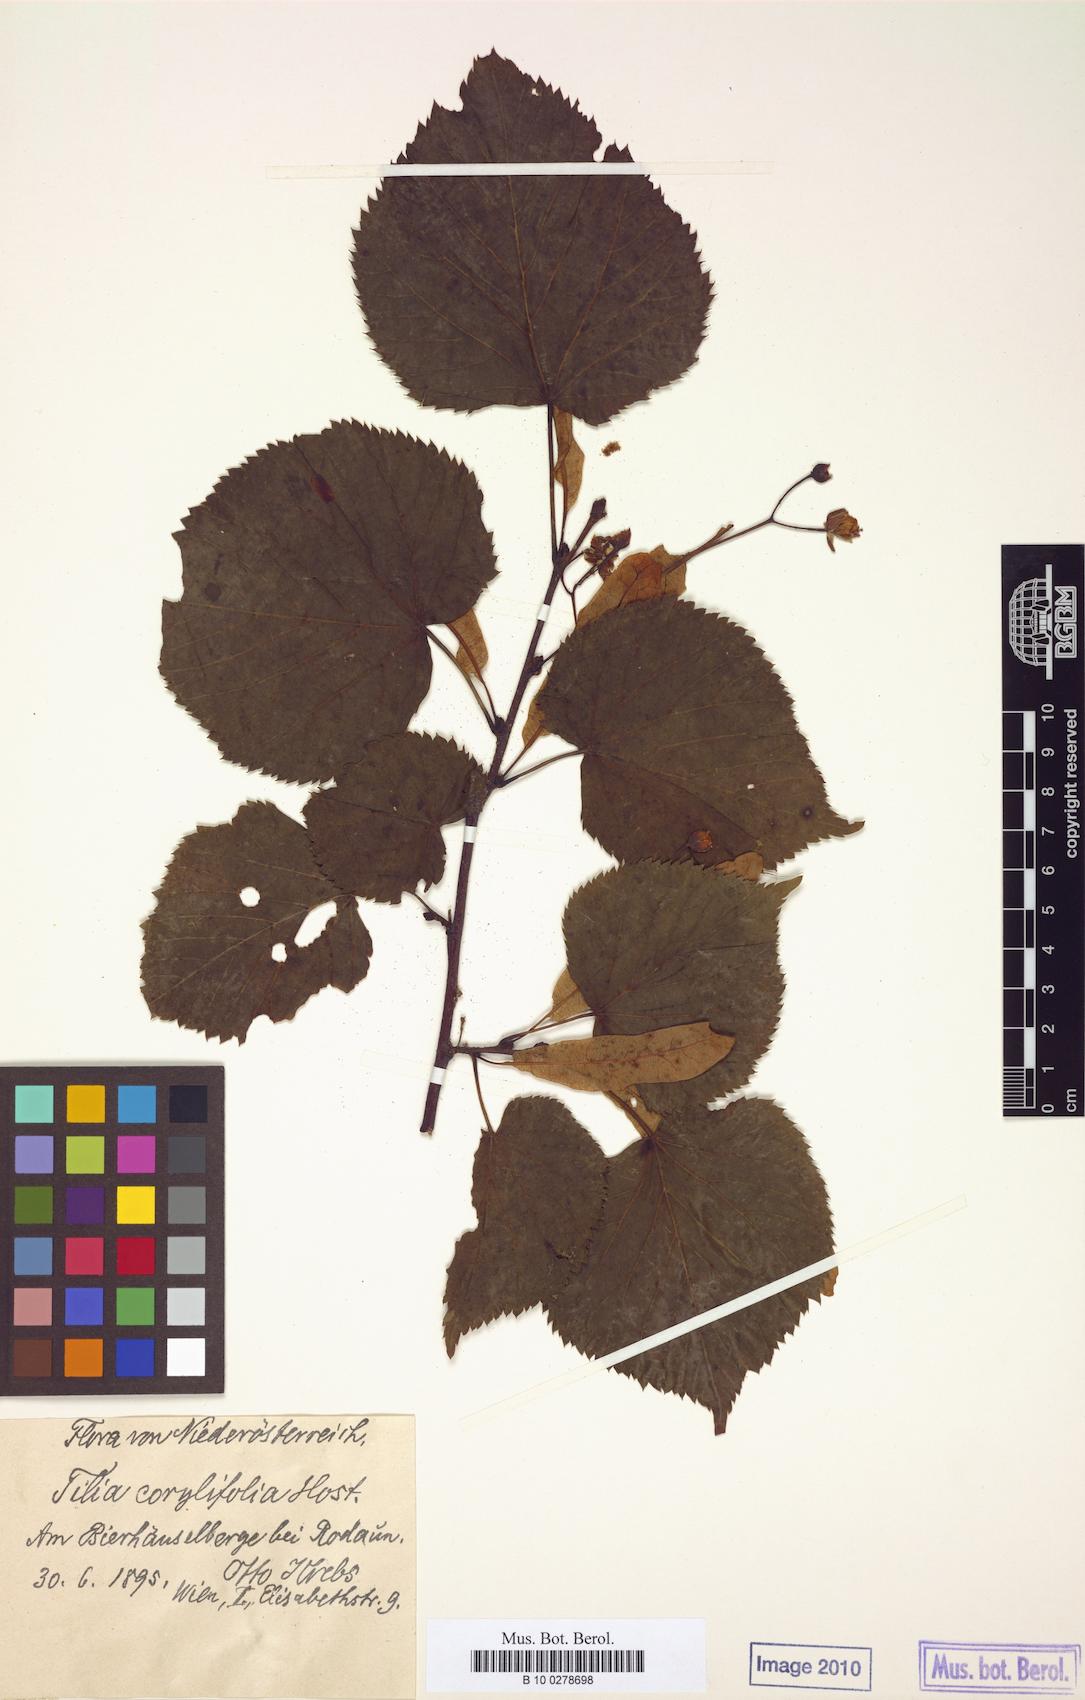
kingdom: Plantae
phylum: Tracheophyta
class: Magnoliopsida
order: Malvales
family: Malvaceae
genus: Tilia
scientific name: Tilia platyphyllos
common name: Large-leaved lime
